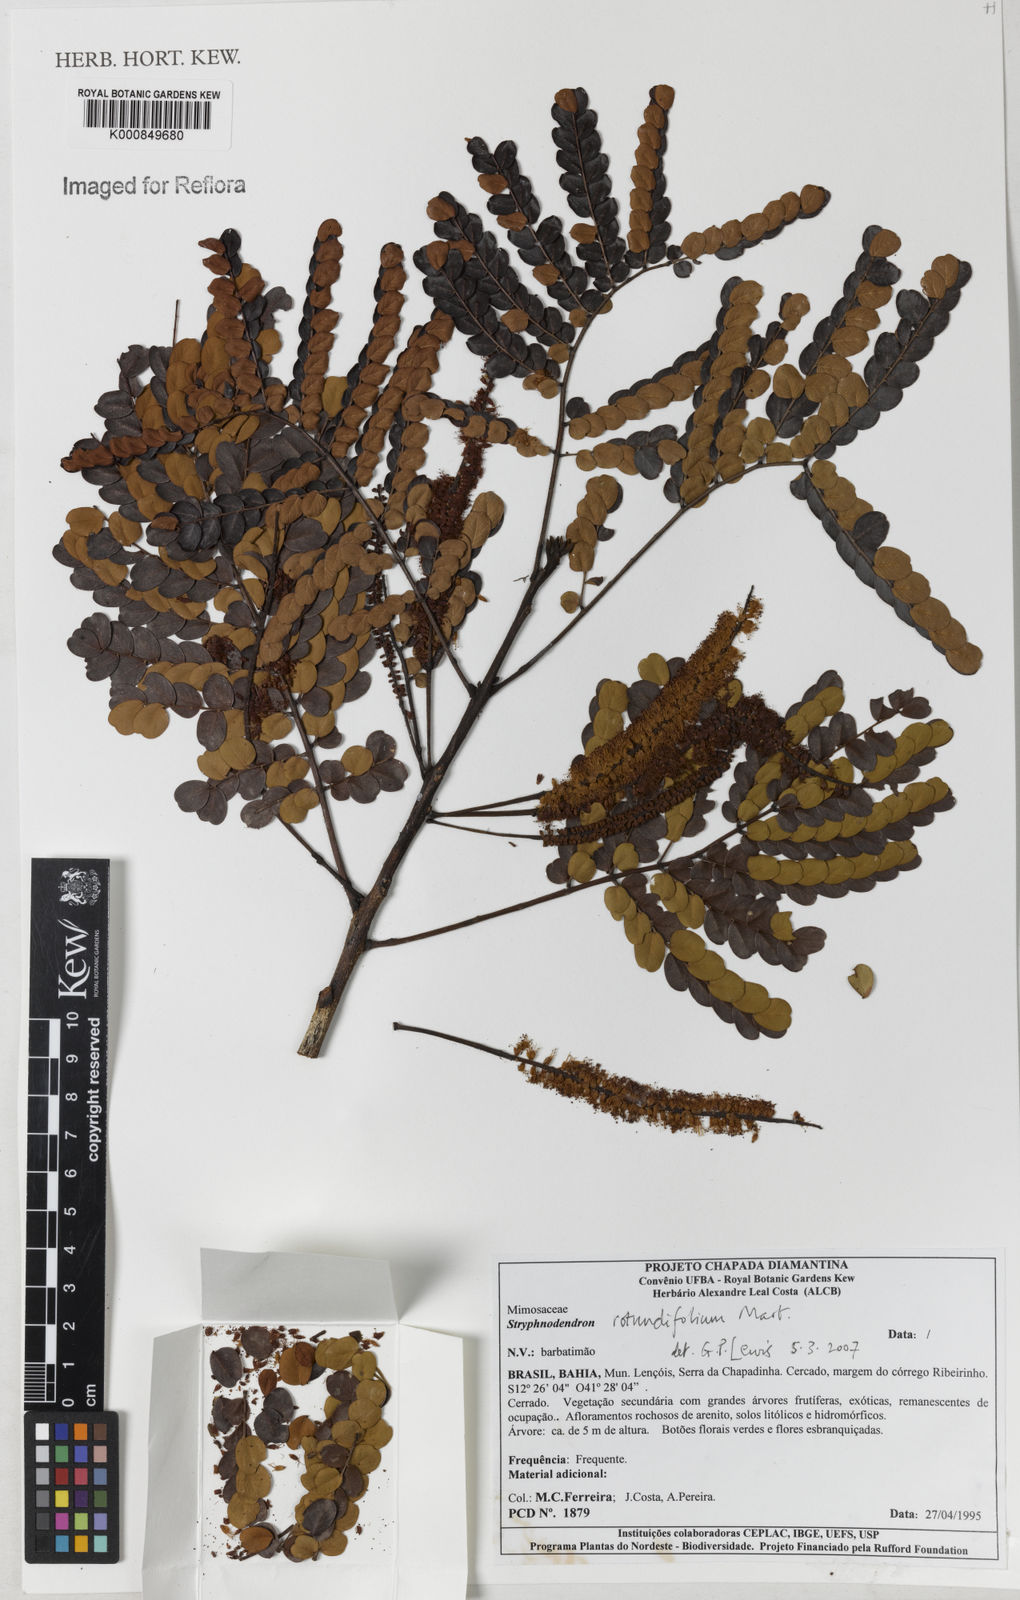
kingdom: Plantae
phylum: Tracheophyta
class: Magnoliopsida
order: Fabales
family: Fabaceae
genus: Stryphnodendron
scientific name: Stryphnodendron rotundifolium
